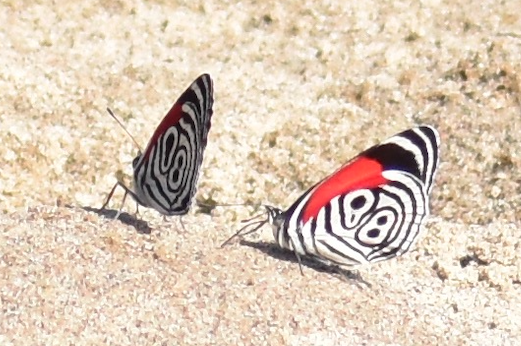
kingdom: Animalia
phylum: Arthropoda
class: Insecta
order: Lepidoptera
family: Nymphalidae
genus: Diaethria
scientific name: Diaethria clymena
